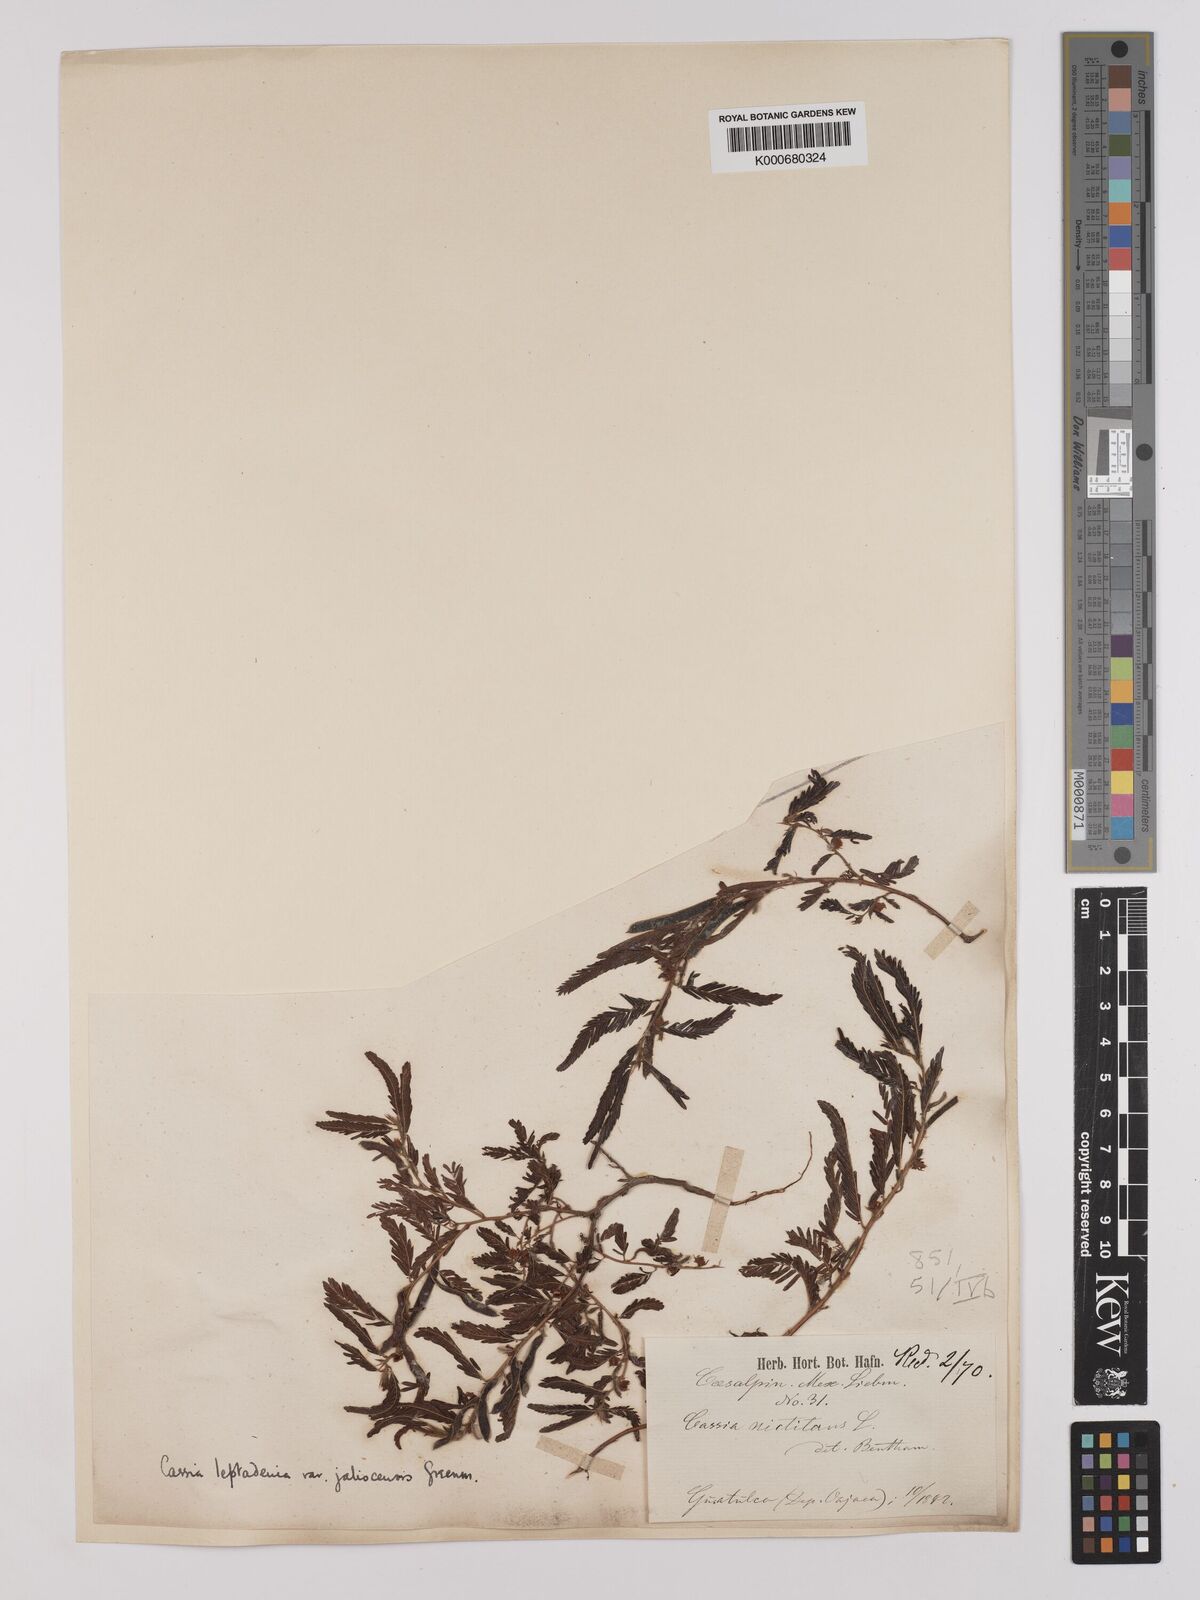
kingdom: Plantae
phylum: Tracheophyta
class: Magnoliopsida
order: Fabales
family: Fabaceae
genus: Chamaecrista
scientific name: Chamaecrista nictitans
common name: Sensitive cassia
